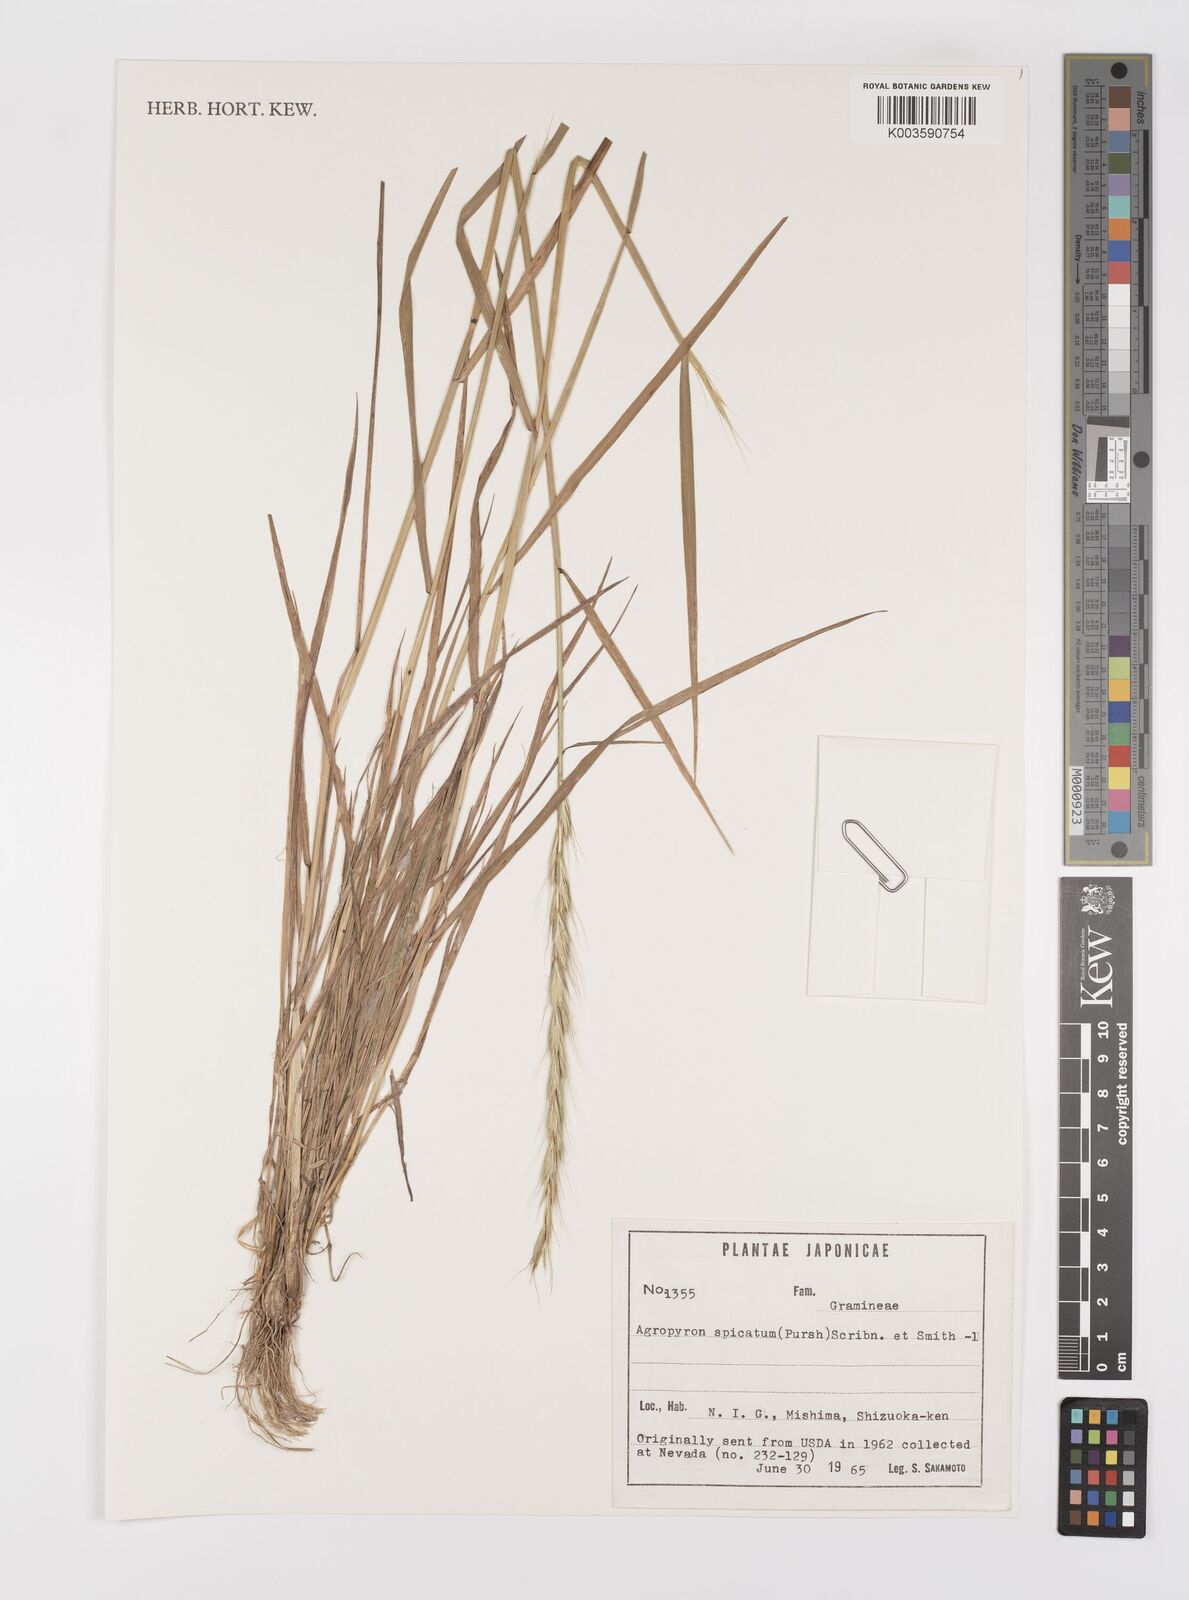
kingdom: Plantae
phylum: Tracheophyta
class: Liliopsida
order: Poales
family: Poaceae
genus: Pseudoroegneria
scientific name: Pseudoroegneria spicata
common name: Bluebunch wheatgrass
